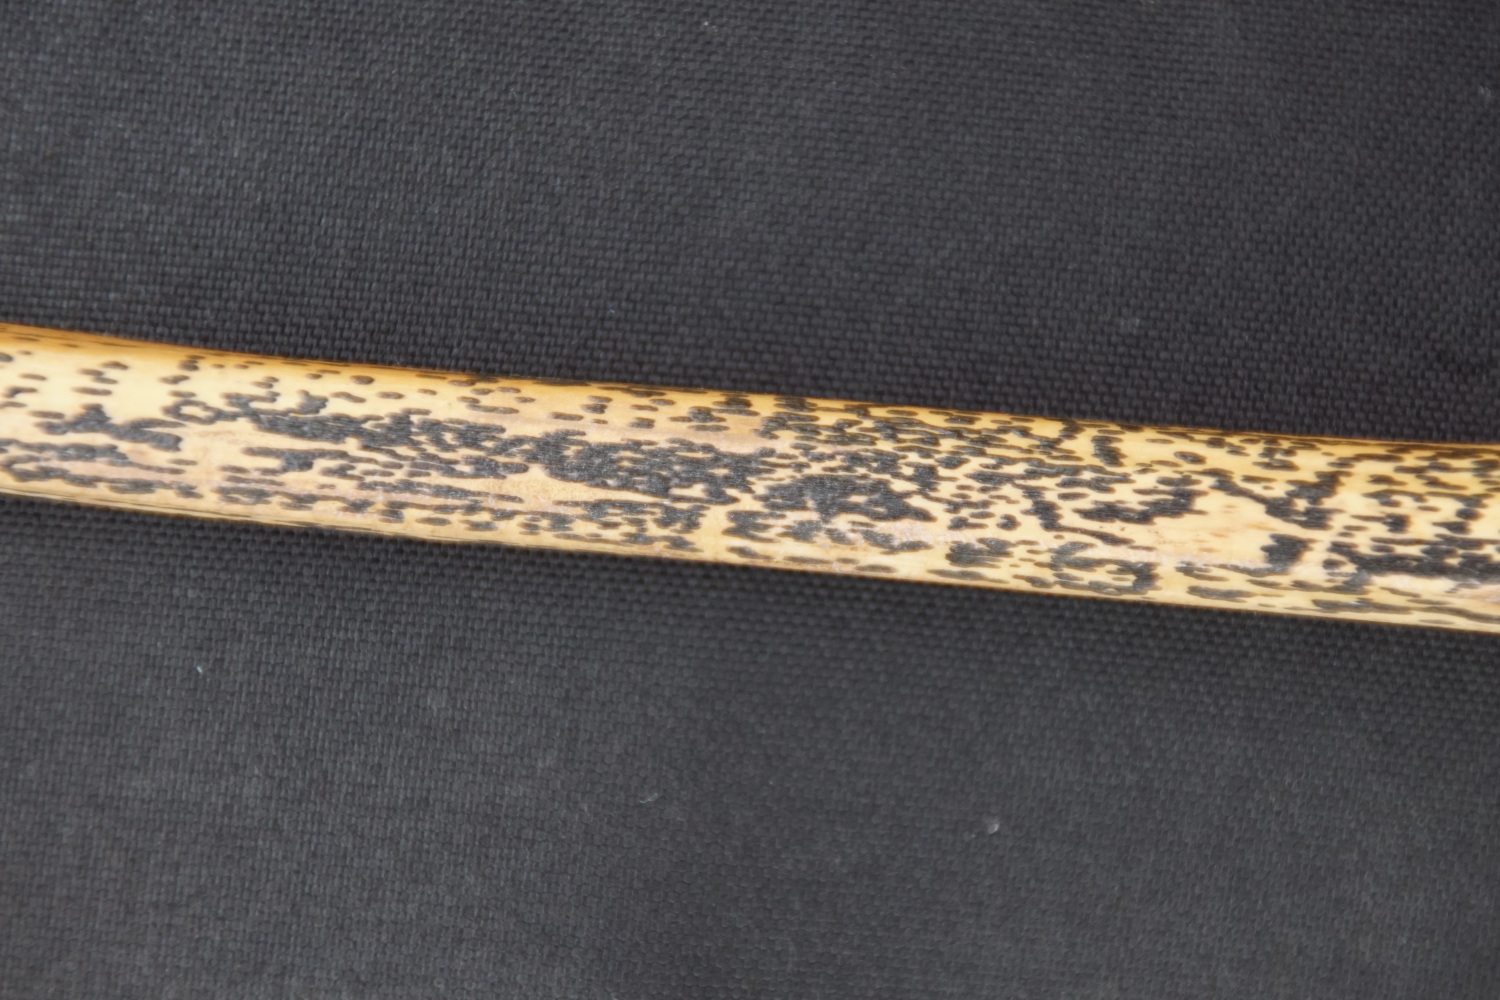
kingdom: Fungi
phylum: Ascomycota
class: Dothideomycetes
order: Pleosporales
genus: Rhopographus
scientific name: Rhopographus filicinus
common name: Bracken map
